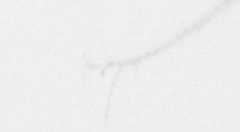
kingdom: Animalia
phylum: Arthropoda
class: Copepoda
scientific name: Copepoda
